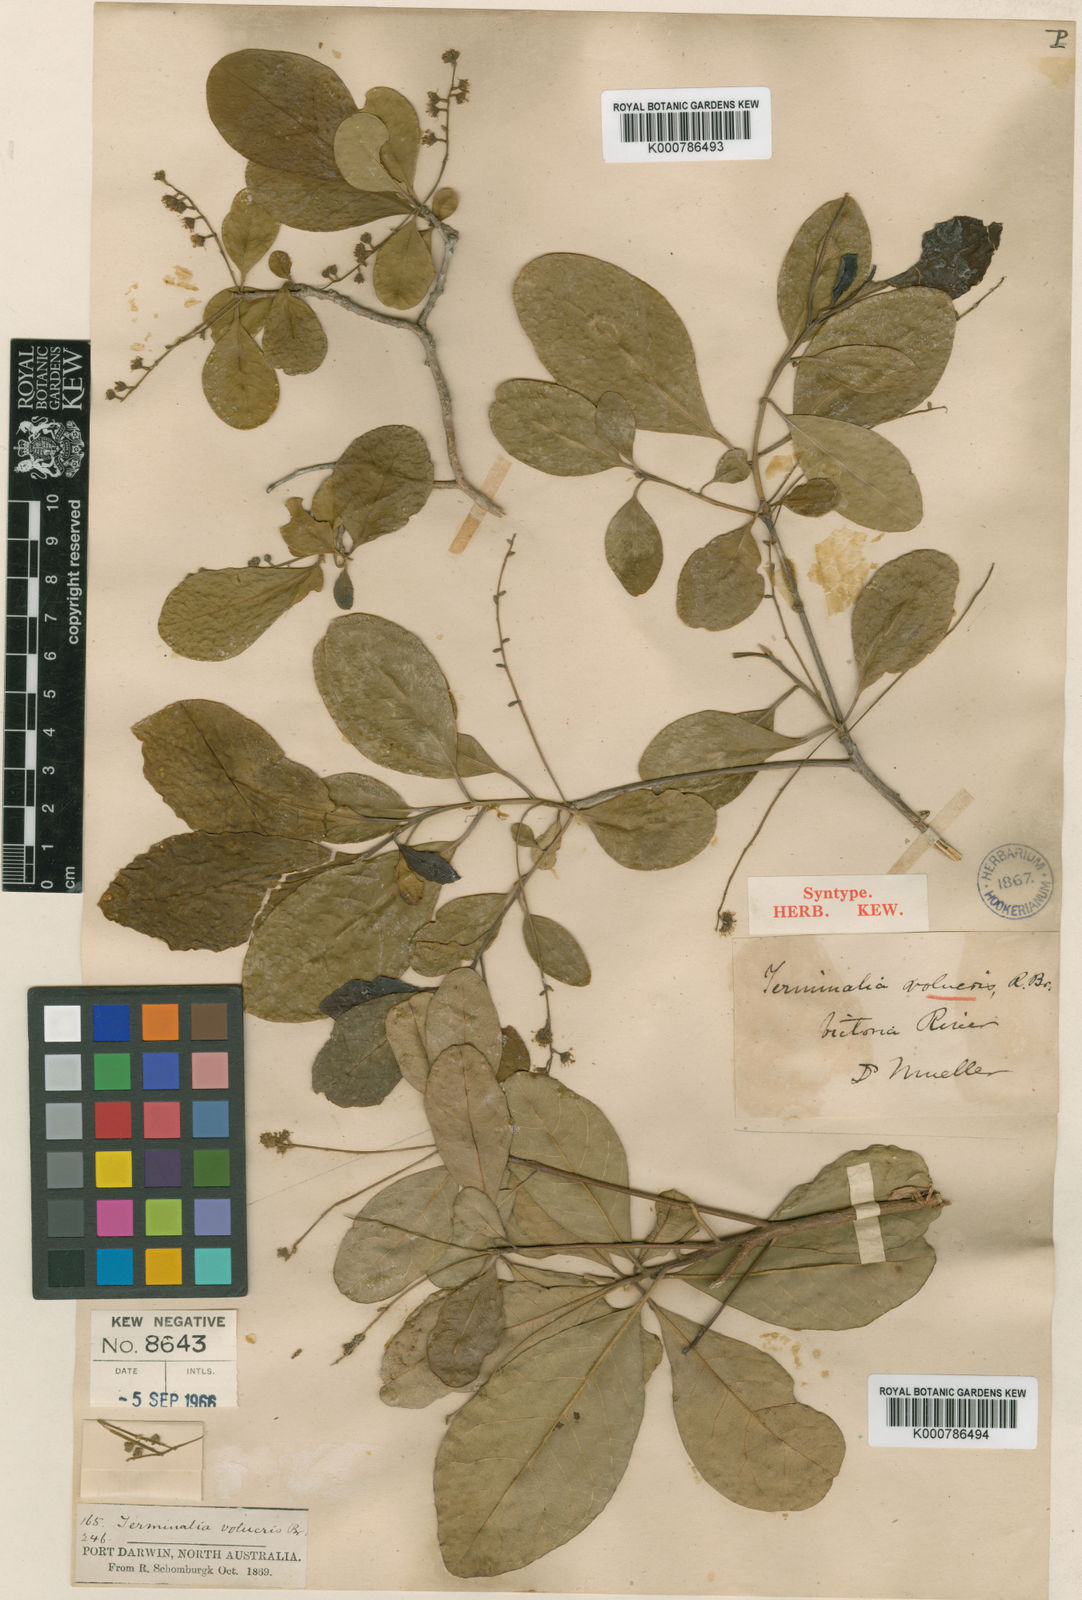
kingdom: Plantae
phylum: Tracheophyta
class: Magnoliopsida
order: Myrtales
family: Combretaceae
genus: Terminalia
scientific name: Terminalia volucris
